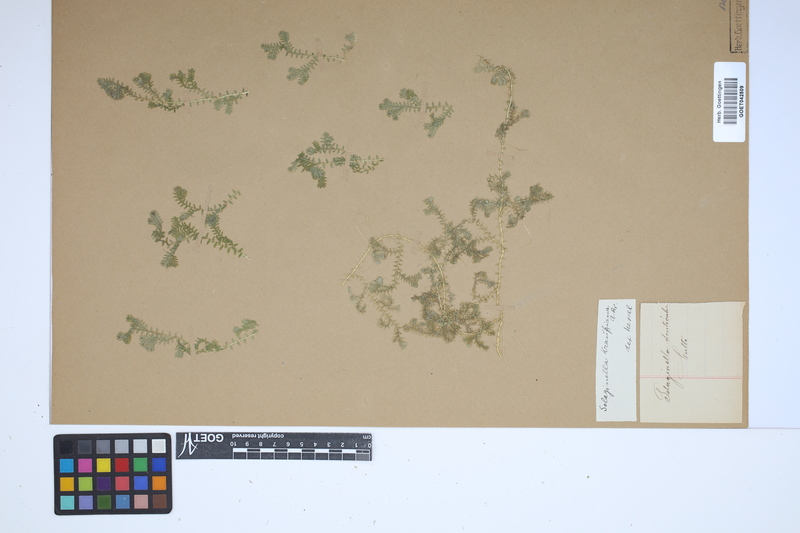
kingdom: Plantae
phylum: Tracheophyta
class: Lycopodiopsida
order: Selaginellales
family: Selaginellaceae
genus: Selaginella
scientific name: Selaginella kraussiana
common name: Krauss' spikemoss
